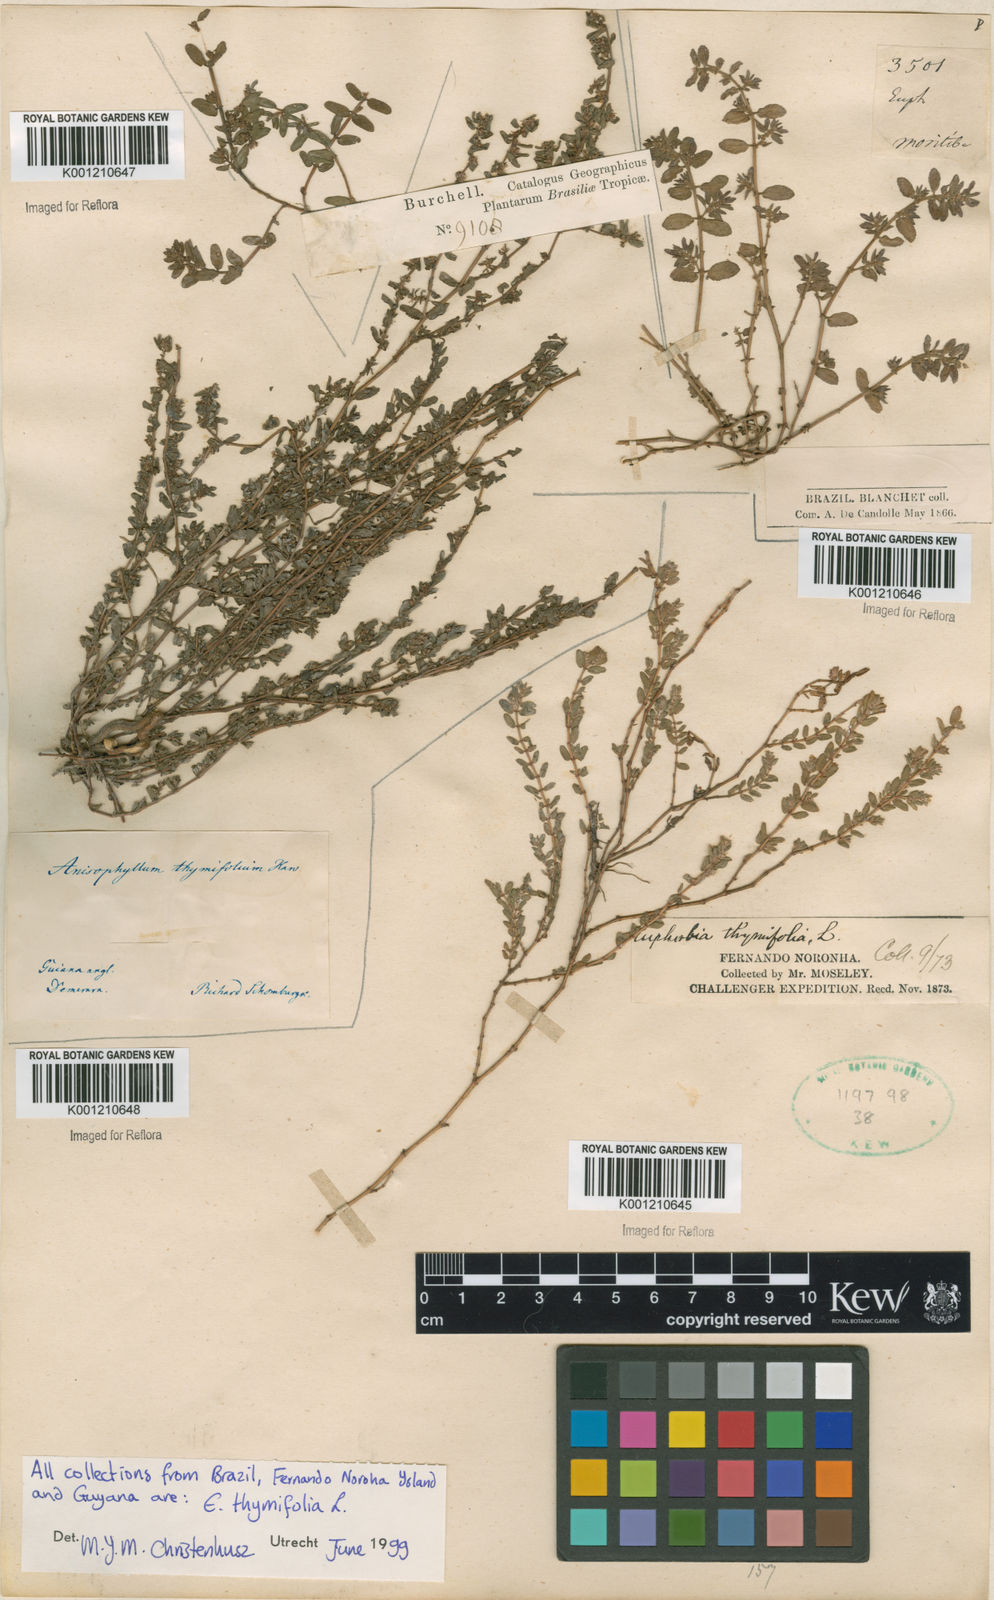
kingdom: Plantae
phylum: Tracheophyta
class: Magnoliopsida
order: Malpighiales
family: Euphorbiaceae
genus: Euphorbia
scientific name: Euphorbia serpens
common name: Matted sandmat
